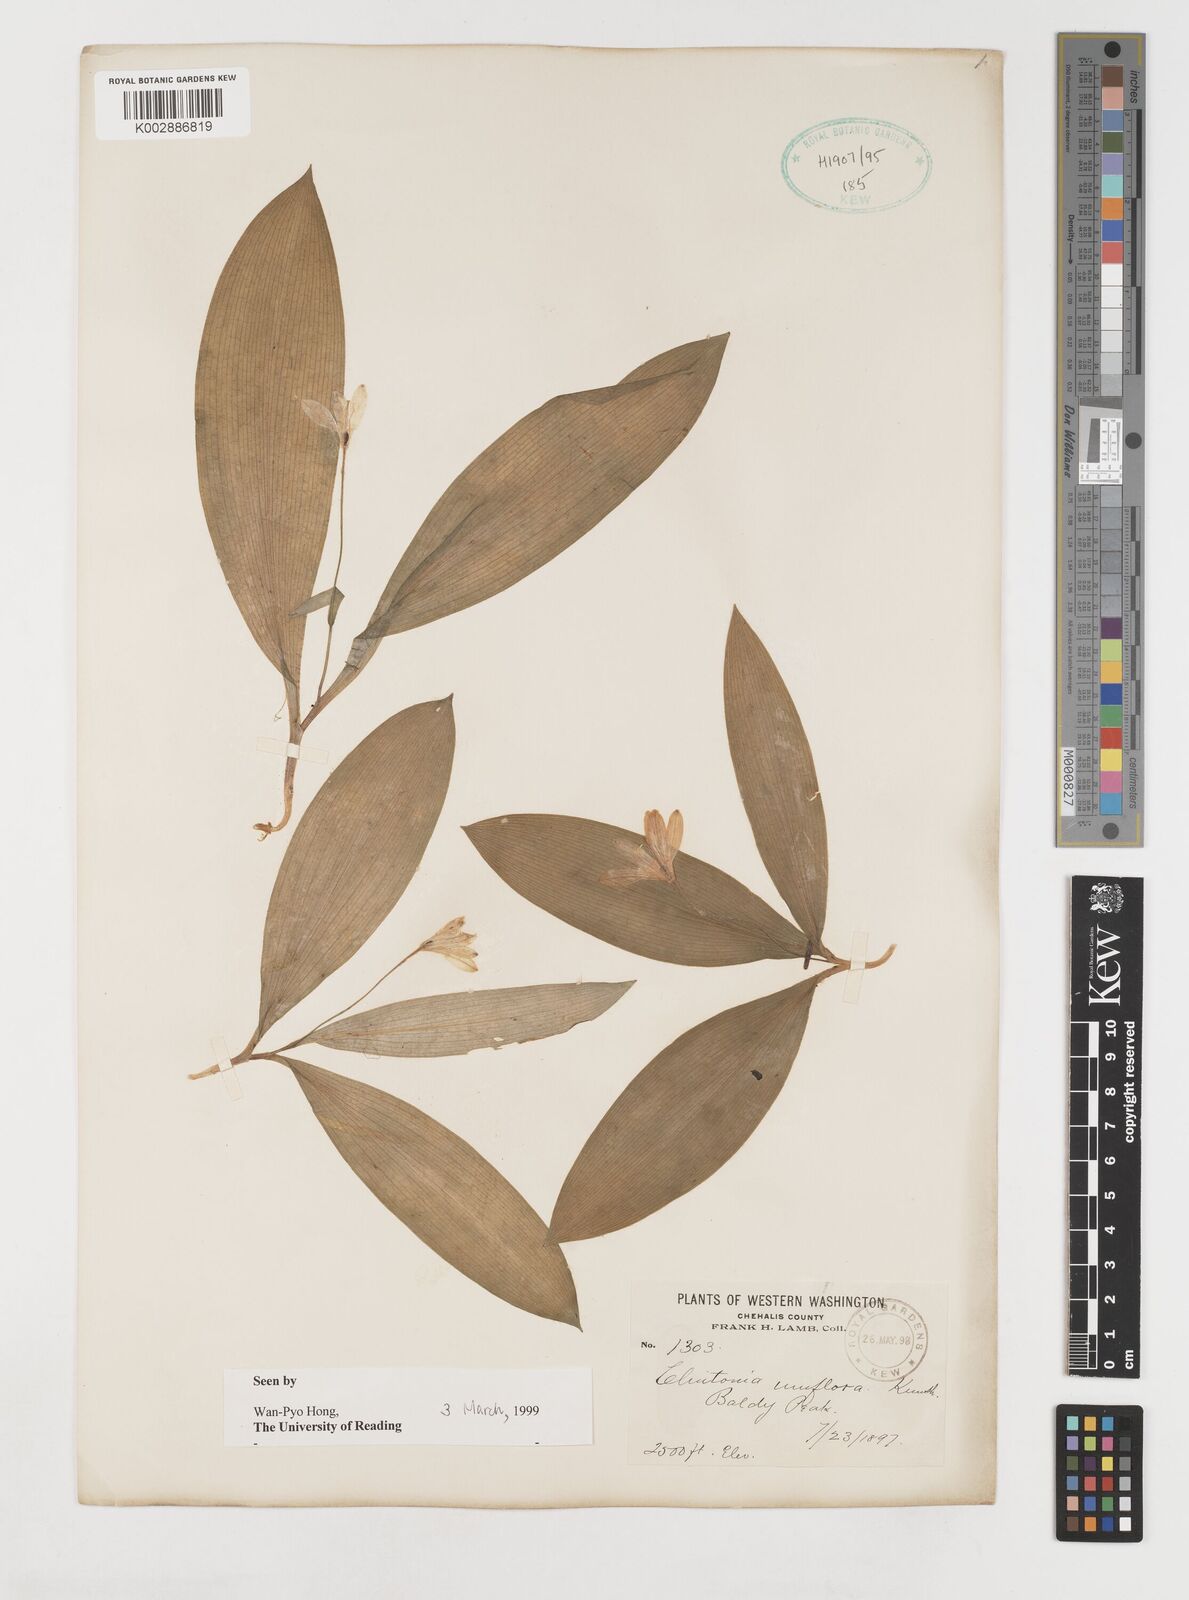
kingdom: Plantae
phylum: Tracheophyta
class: Liliopsida
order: Liliales
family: Liliaceae
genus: Clintonia
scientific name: Clintonia uniflora
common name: Queen's cup
